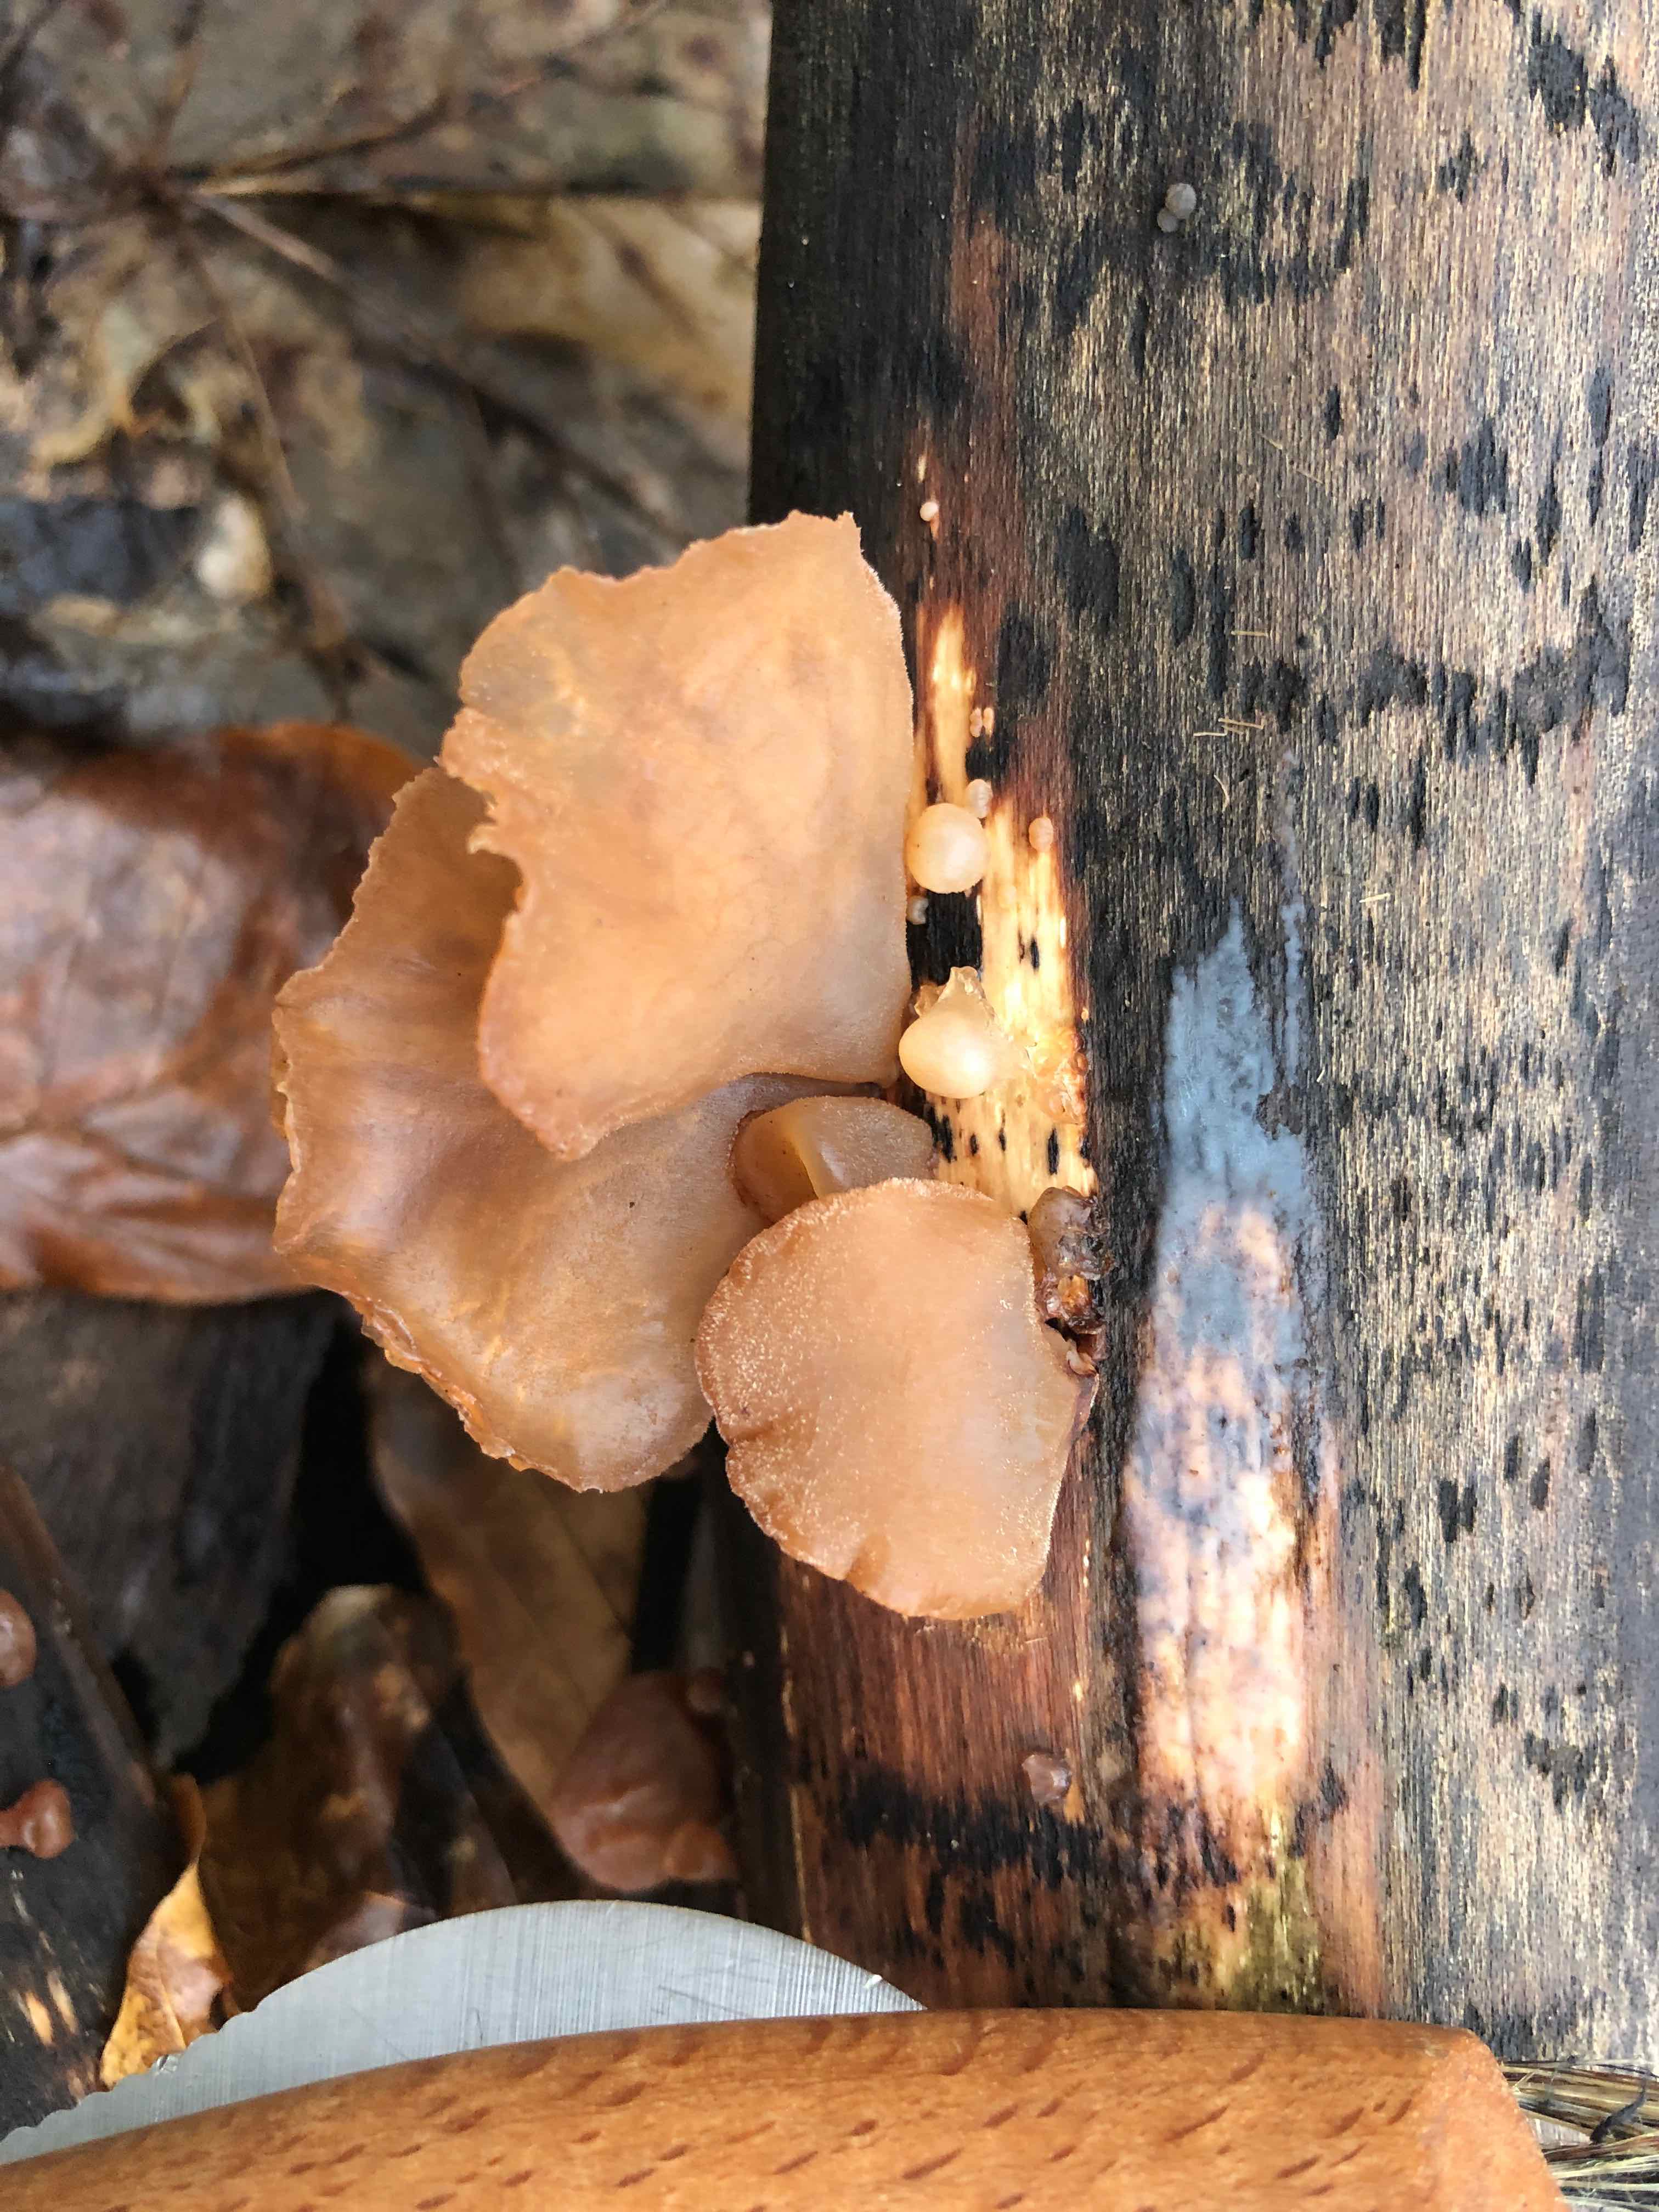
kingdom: Fungi
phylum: Basidiomycota
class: Agaricomycetes
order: Auriculariales
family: Auriculariaceae
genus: Auricularia
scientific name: Auricularia auricula-judae
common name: almindelig judasøre
